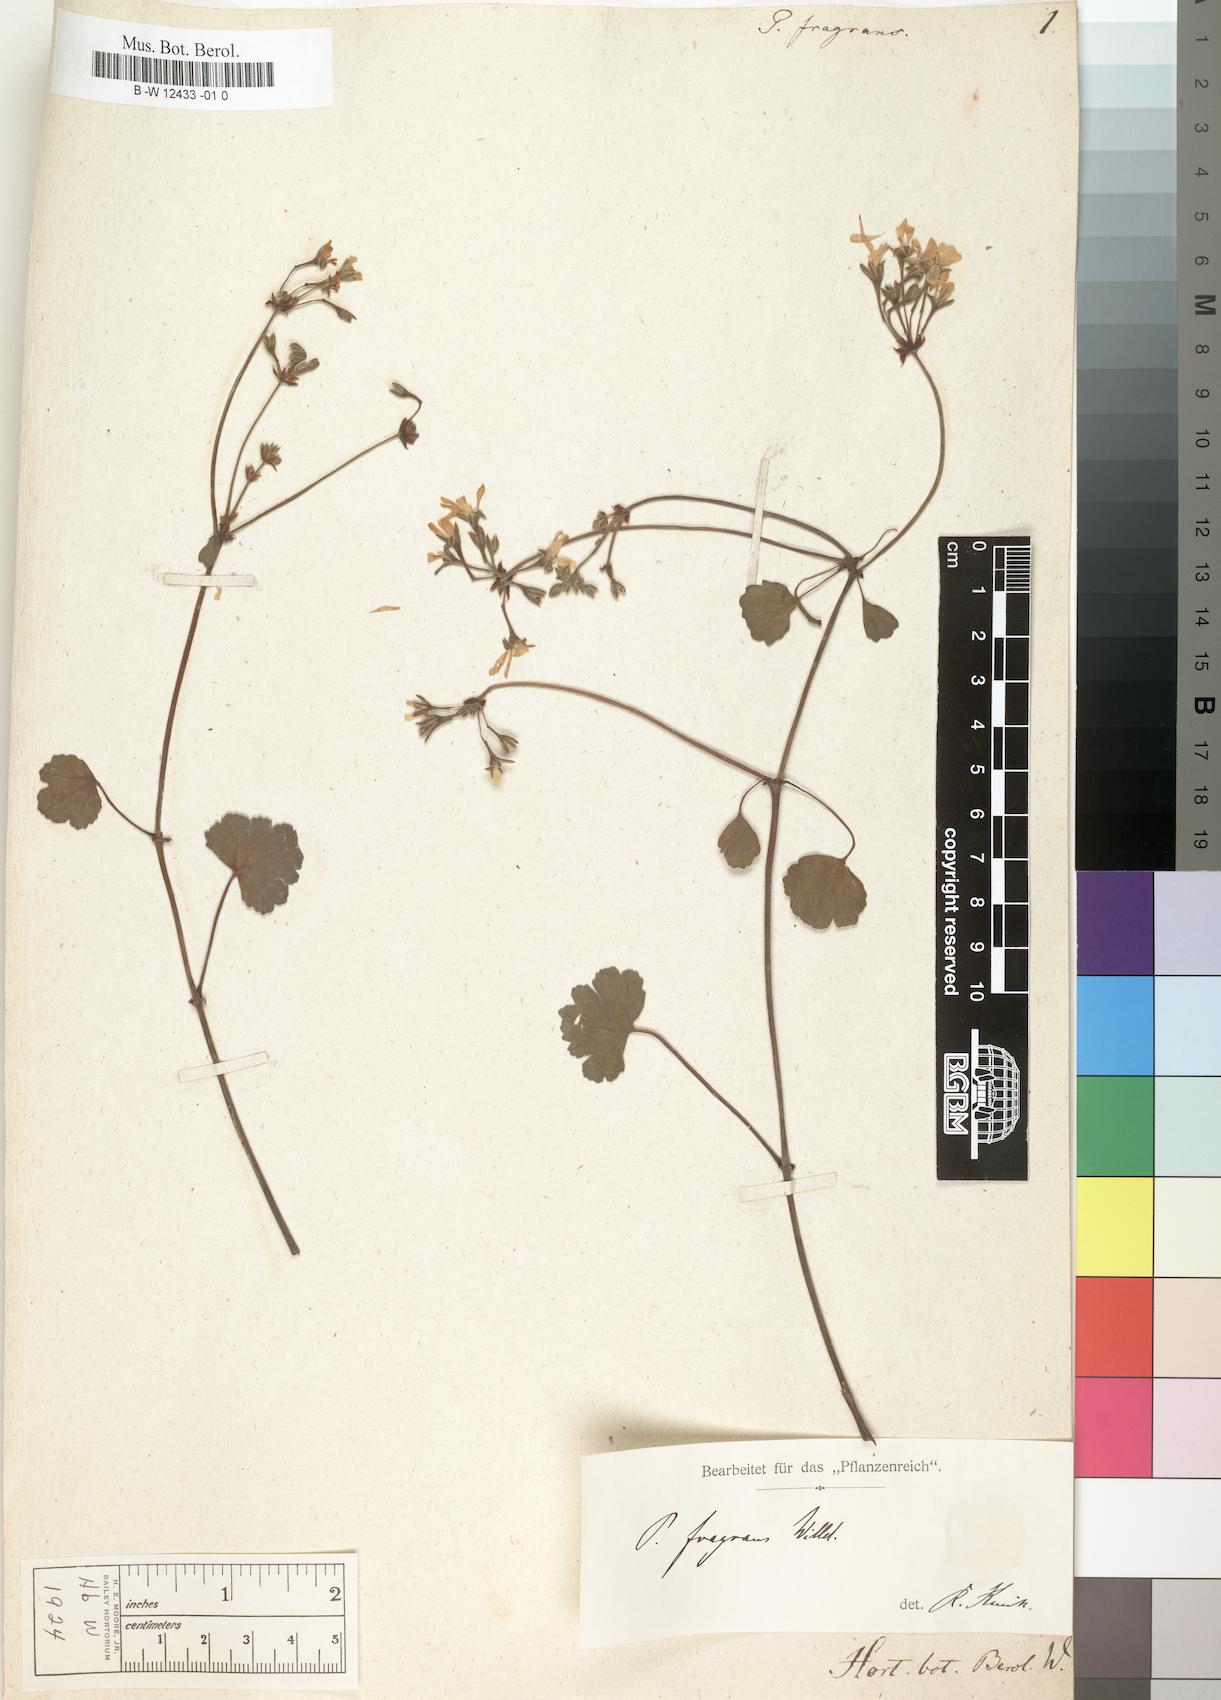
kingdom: Plantae
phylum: Tracheophyta
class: Magnoliopsida
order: Geraniales
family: Geraniaceae
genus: Pelargonium
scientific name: Pelargonium fragrans
